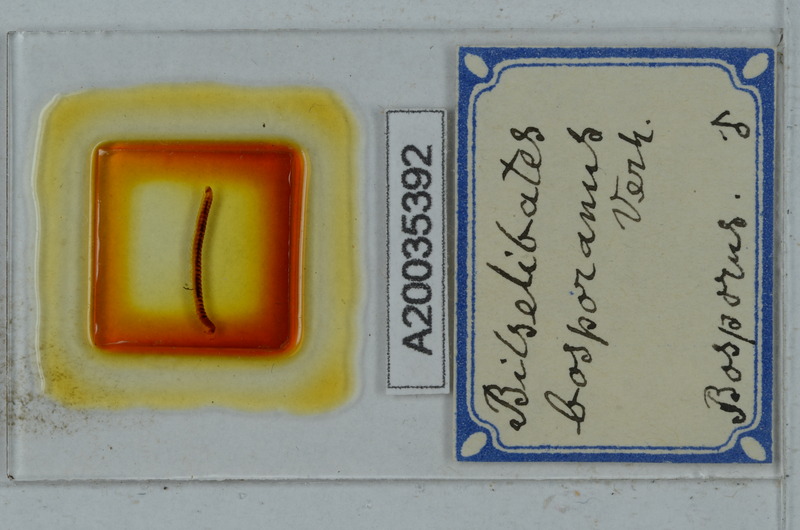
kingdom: Animalia
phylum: Arthropoda
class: Diplopoda
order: Julida
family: Blaniulidae
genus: Cibiniulus
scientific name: Cibiniulus phlepsii
